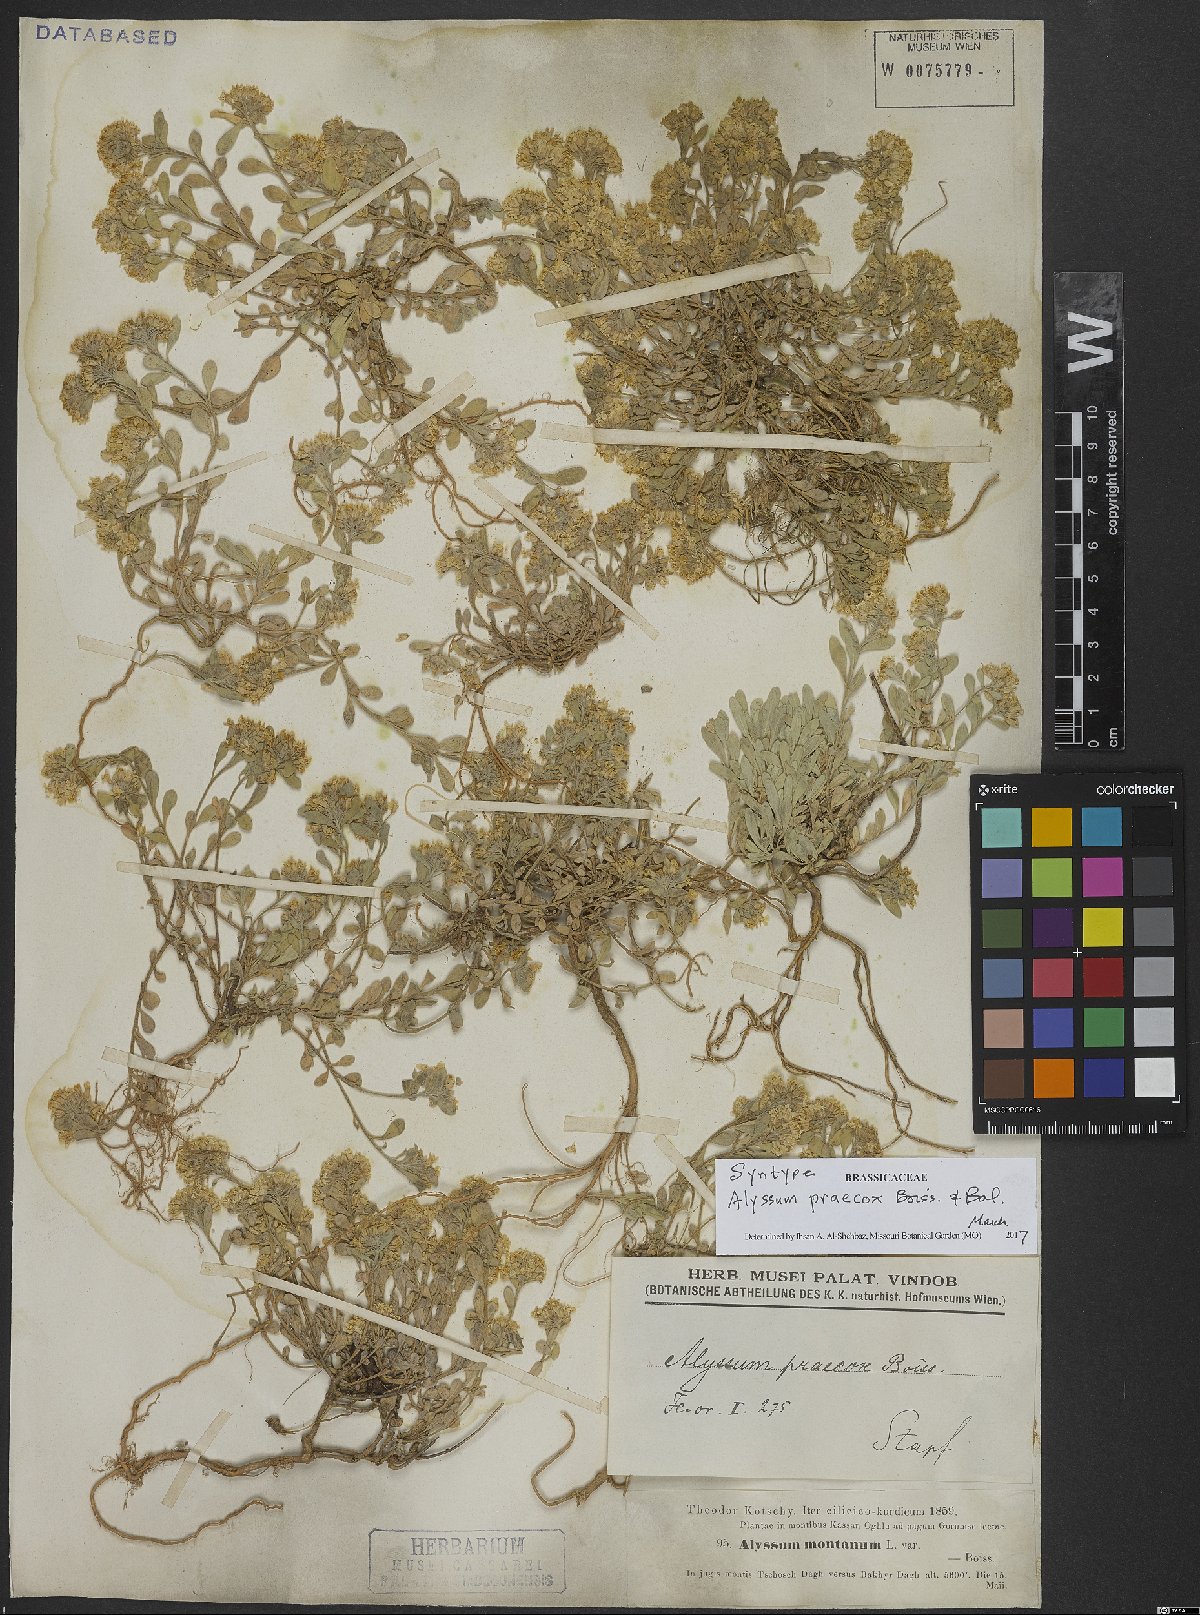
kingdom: Plantae
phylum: Tracheophyta
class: Magnoliopsida
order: Brassicales
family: Brassicaceae
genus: Alyssum
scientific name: Alyssum praecox
